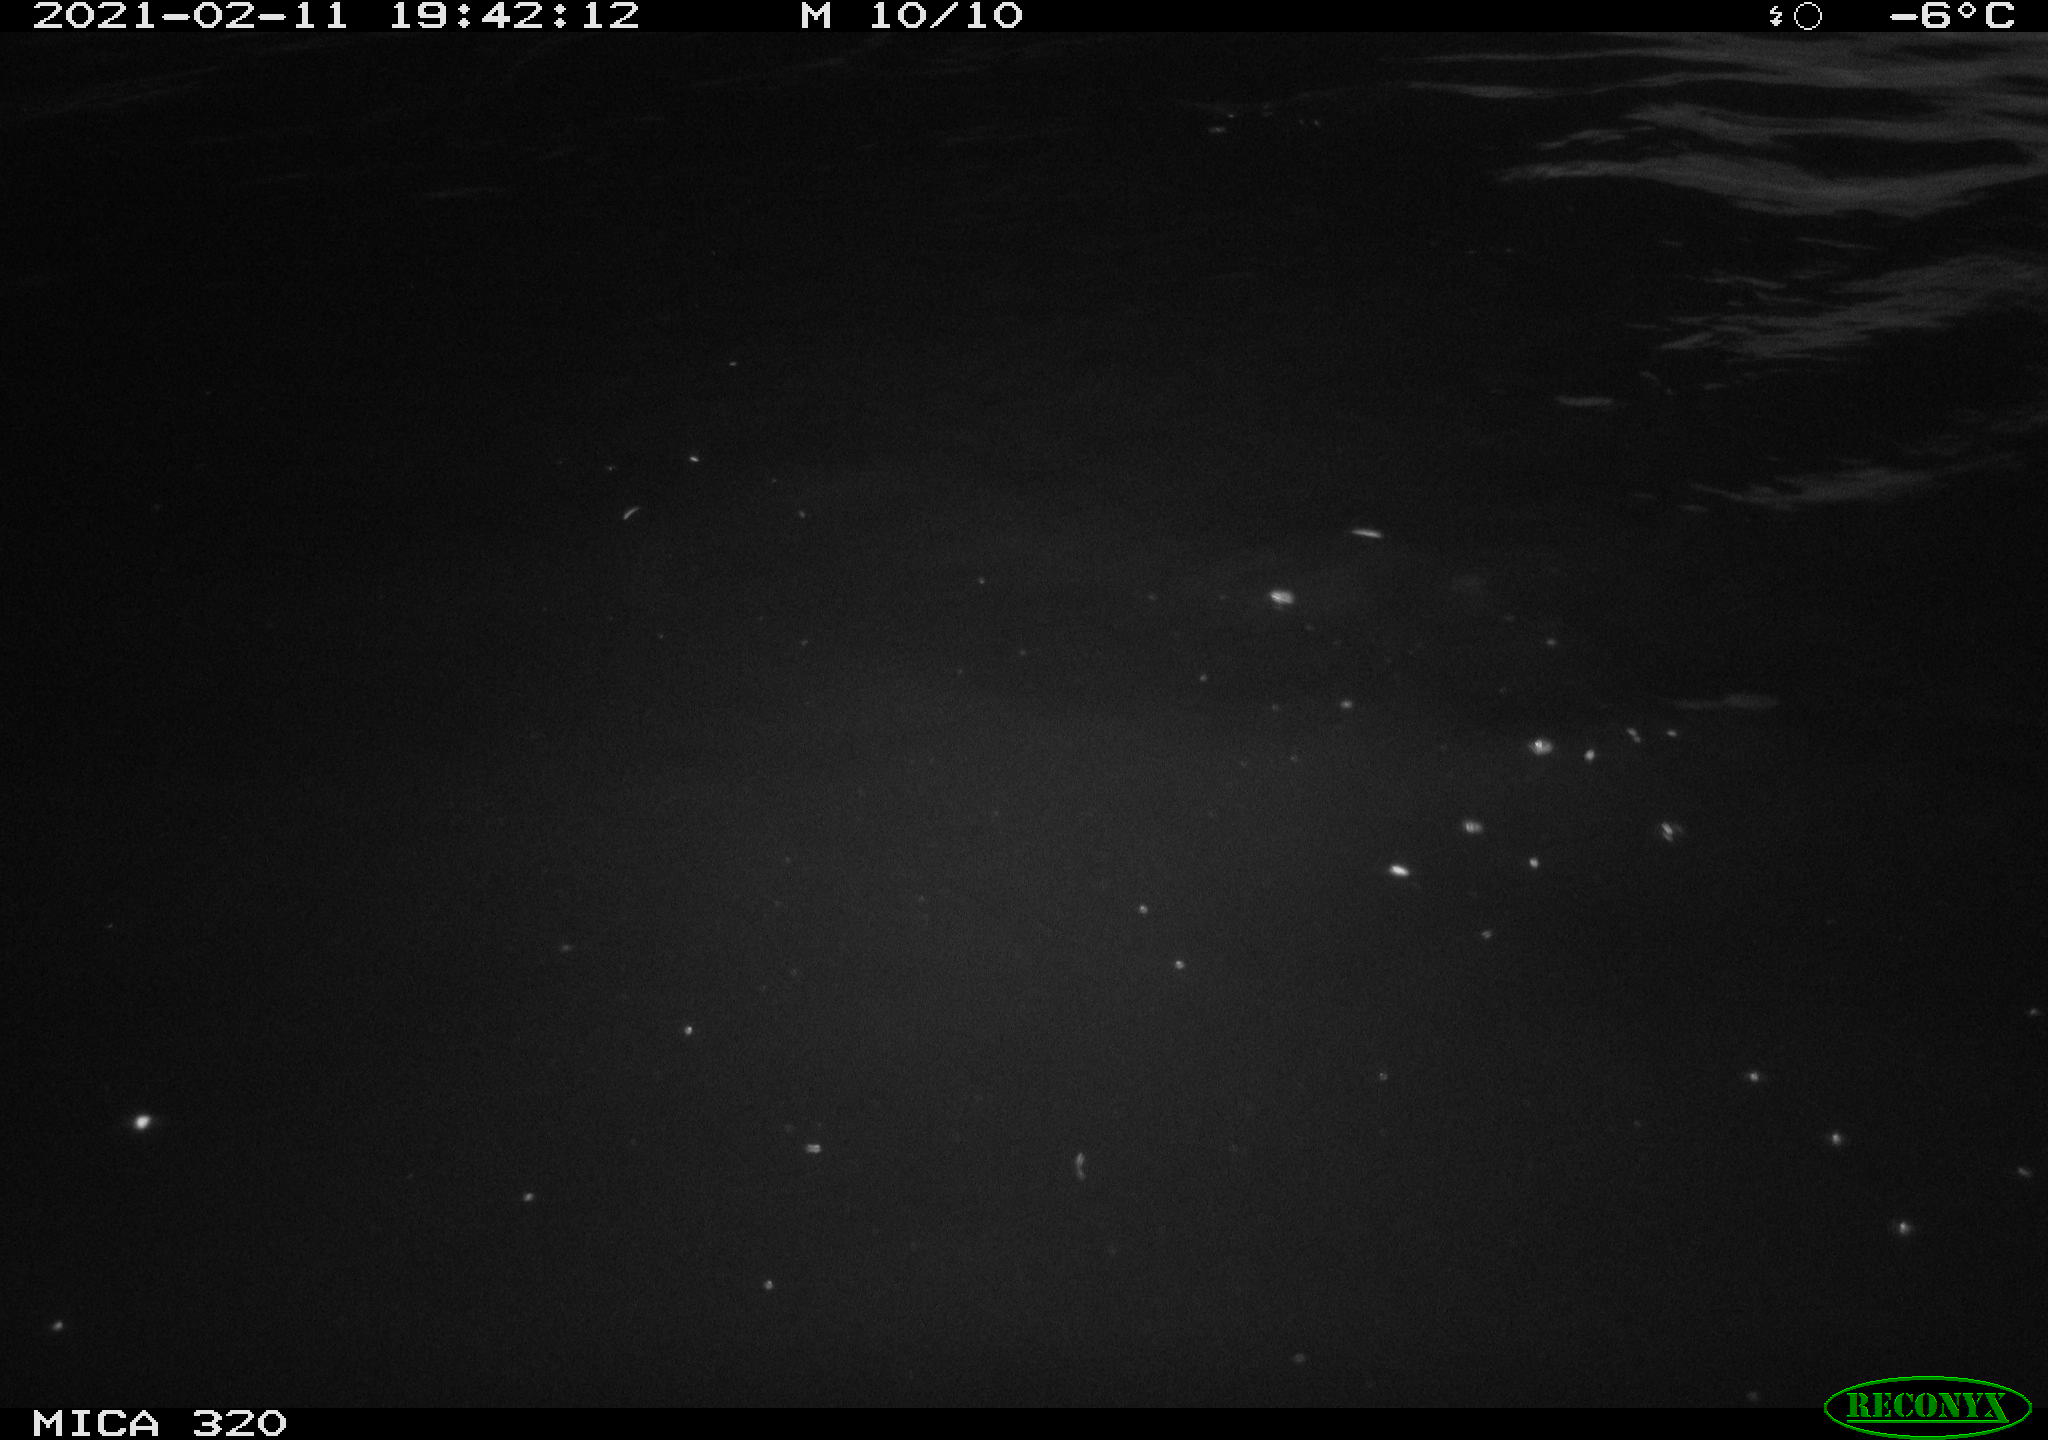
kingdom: Animalia
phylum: Chordata
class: Aves
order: Anseriformes
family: Anatidae
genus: Anas
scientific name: Anas platyrhynchos
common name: Mallard
